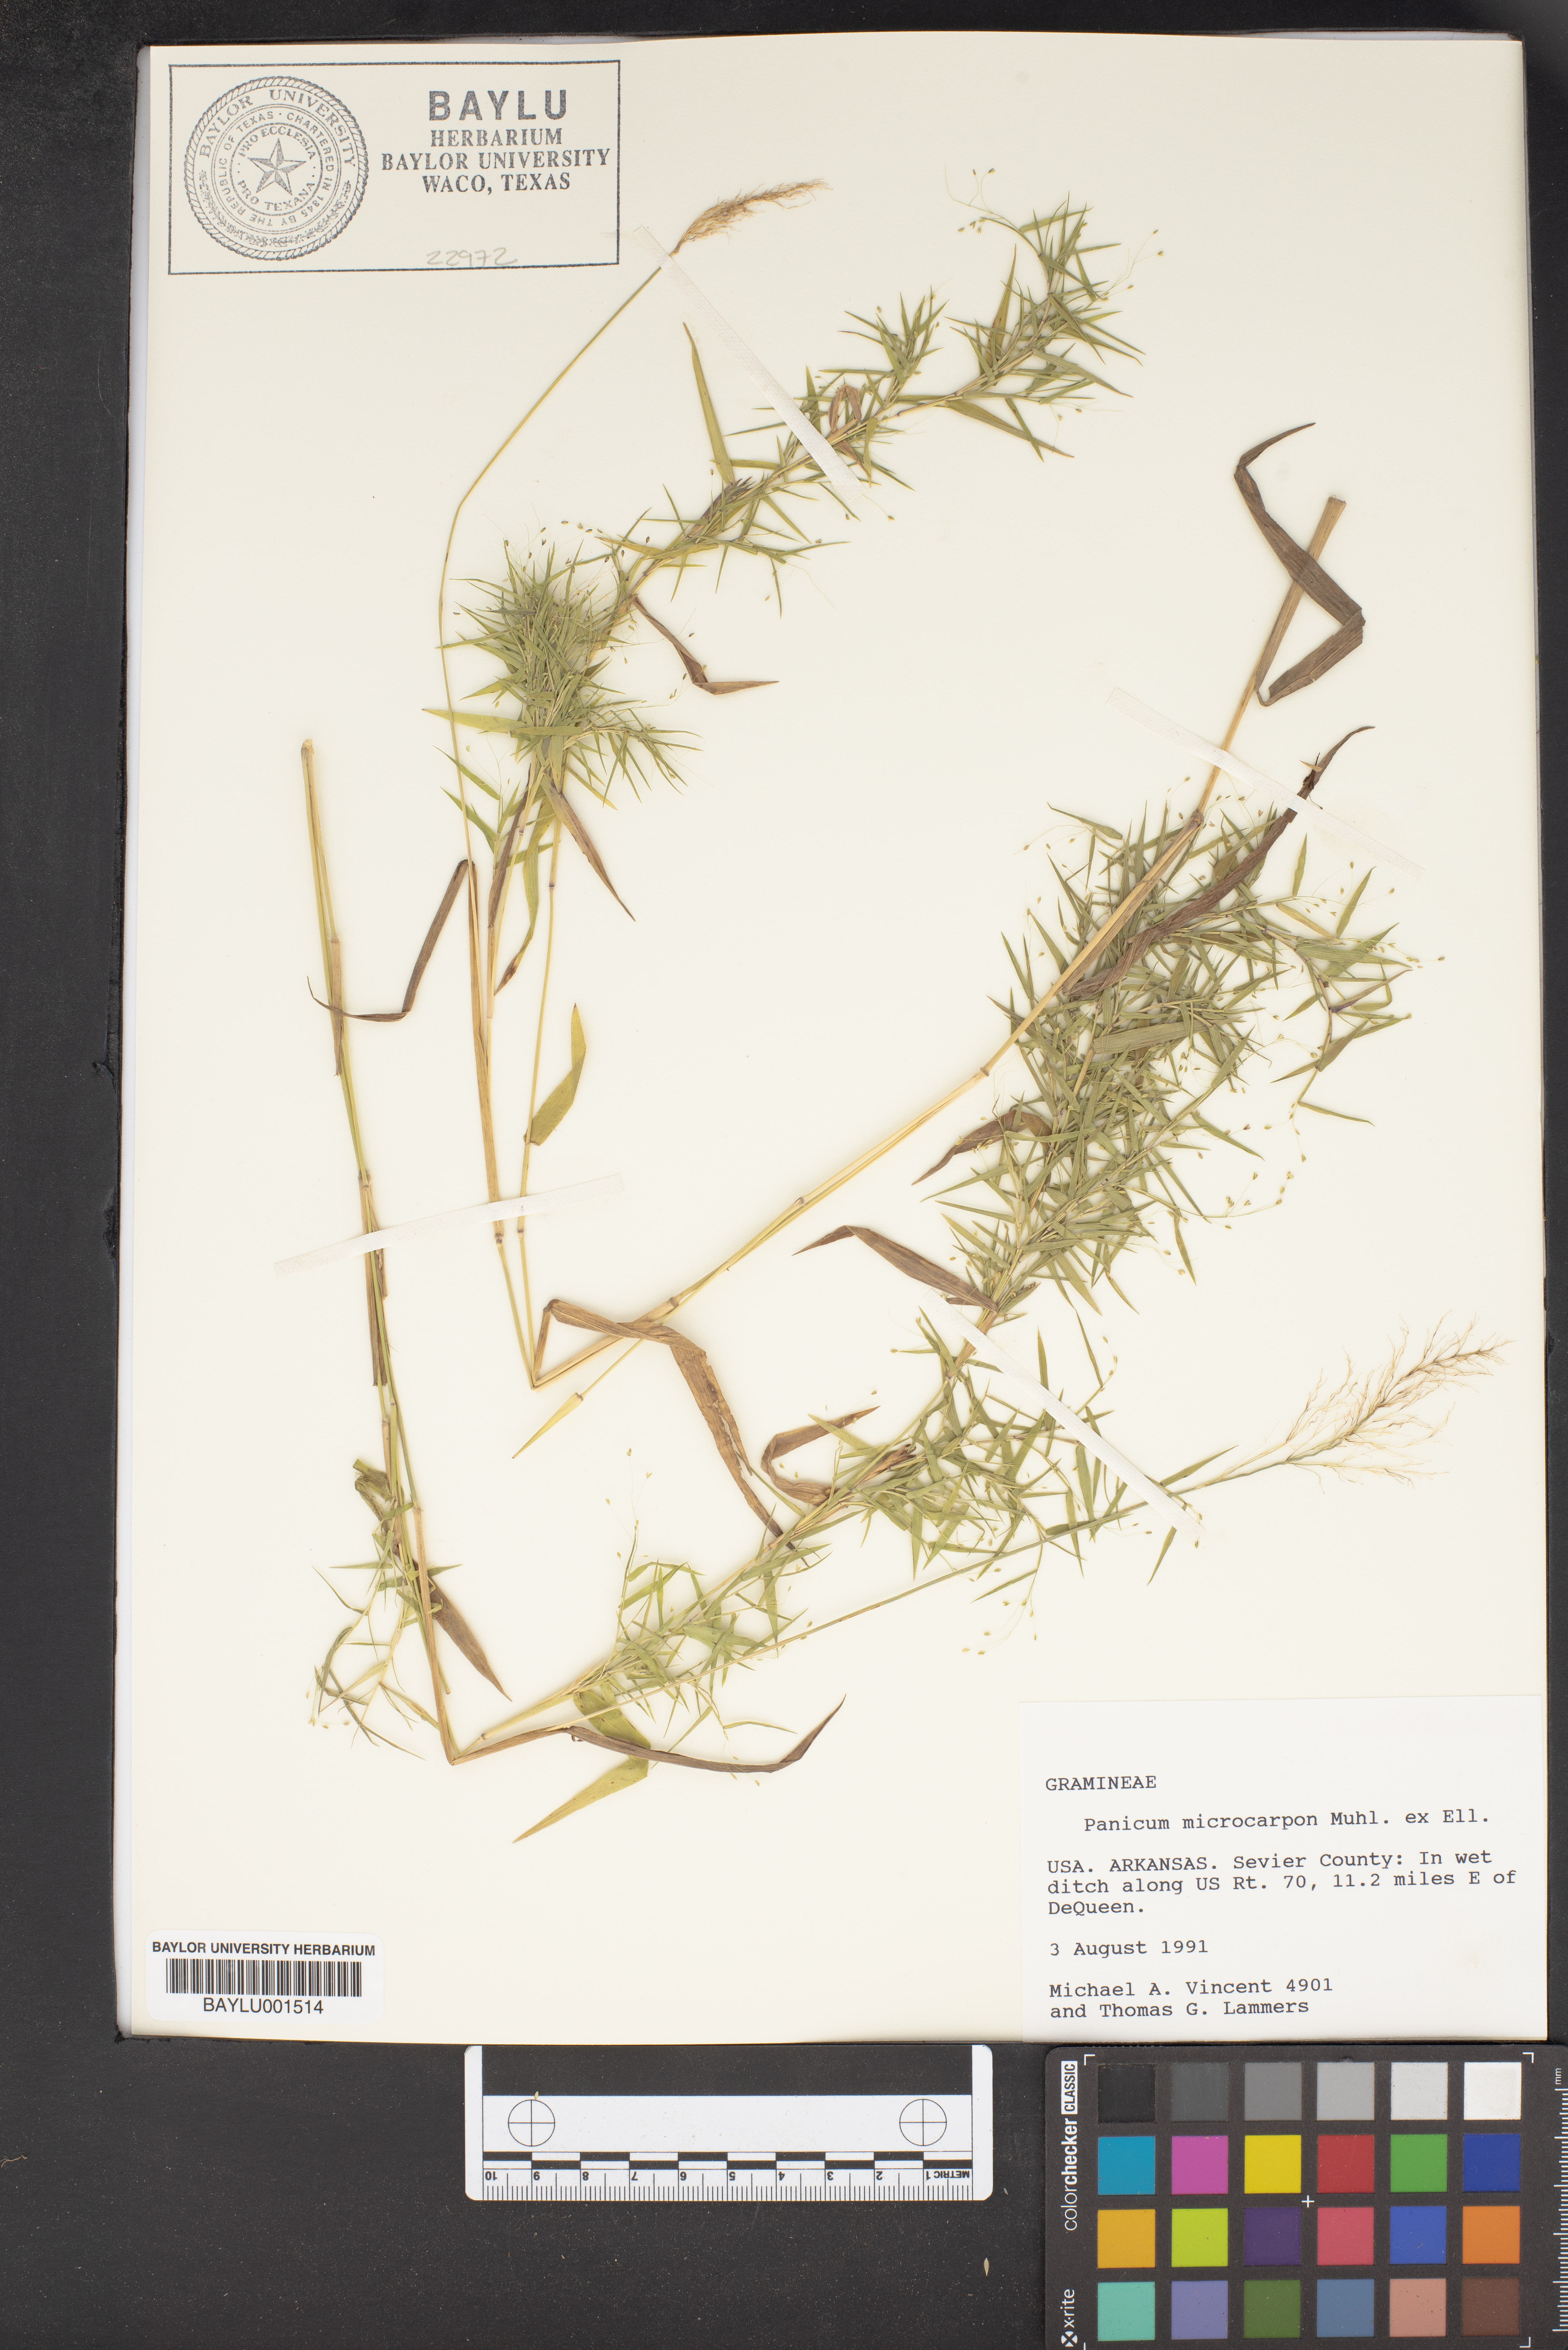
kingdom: Plantae
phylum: Tracheophyta
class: Liliopsida
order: Poales
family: Poaceae
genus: Dichanthelium
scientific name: Dichanthelium polyanthes
